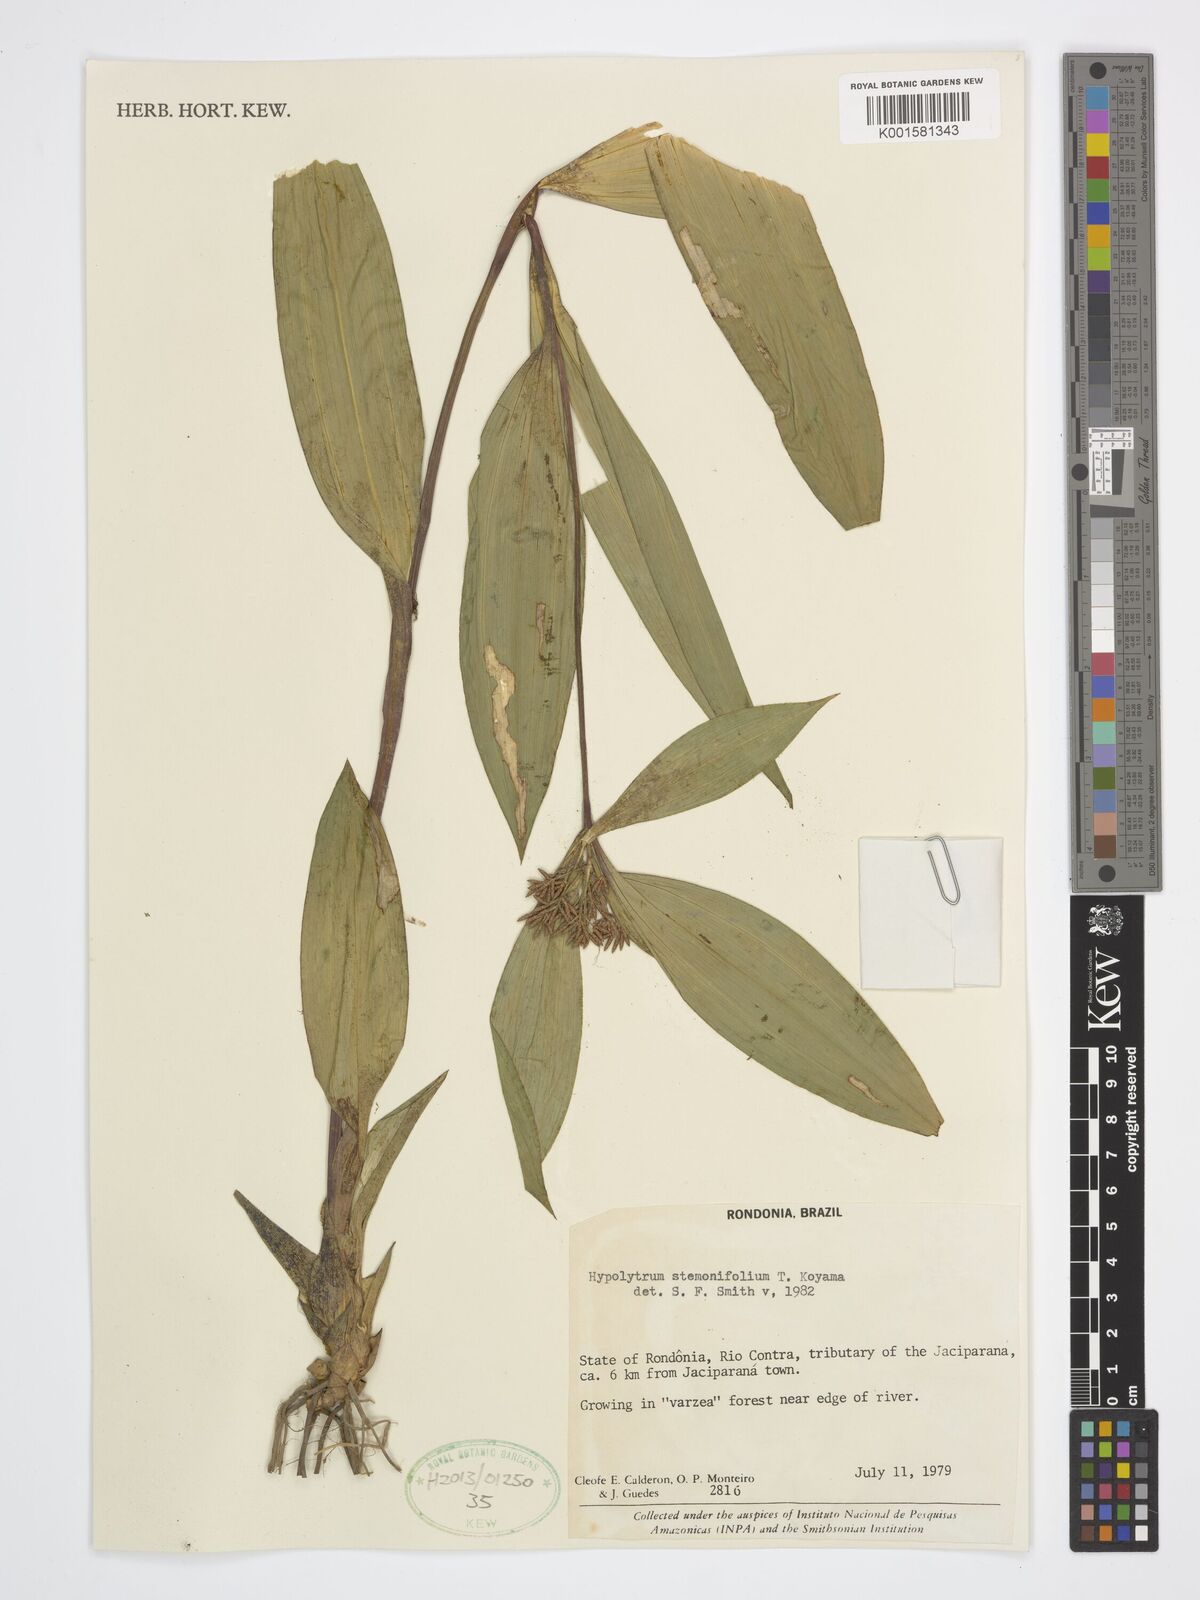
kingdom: Plantae
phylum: Tracheophyta
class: Liliopsida
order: Poales
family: Cyperaceae
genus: Hypolytrum
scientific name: Hypolytrum stemonifolium
